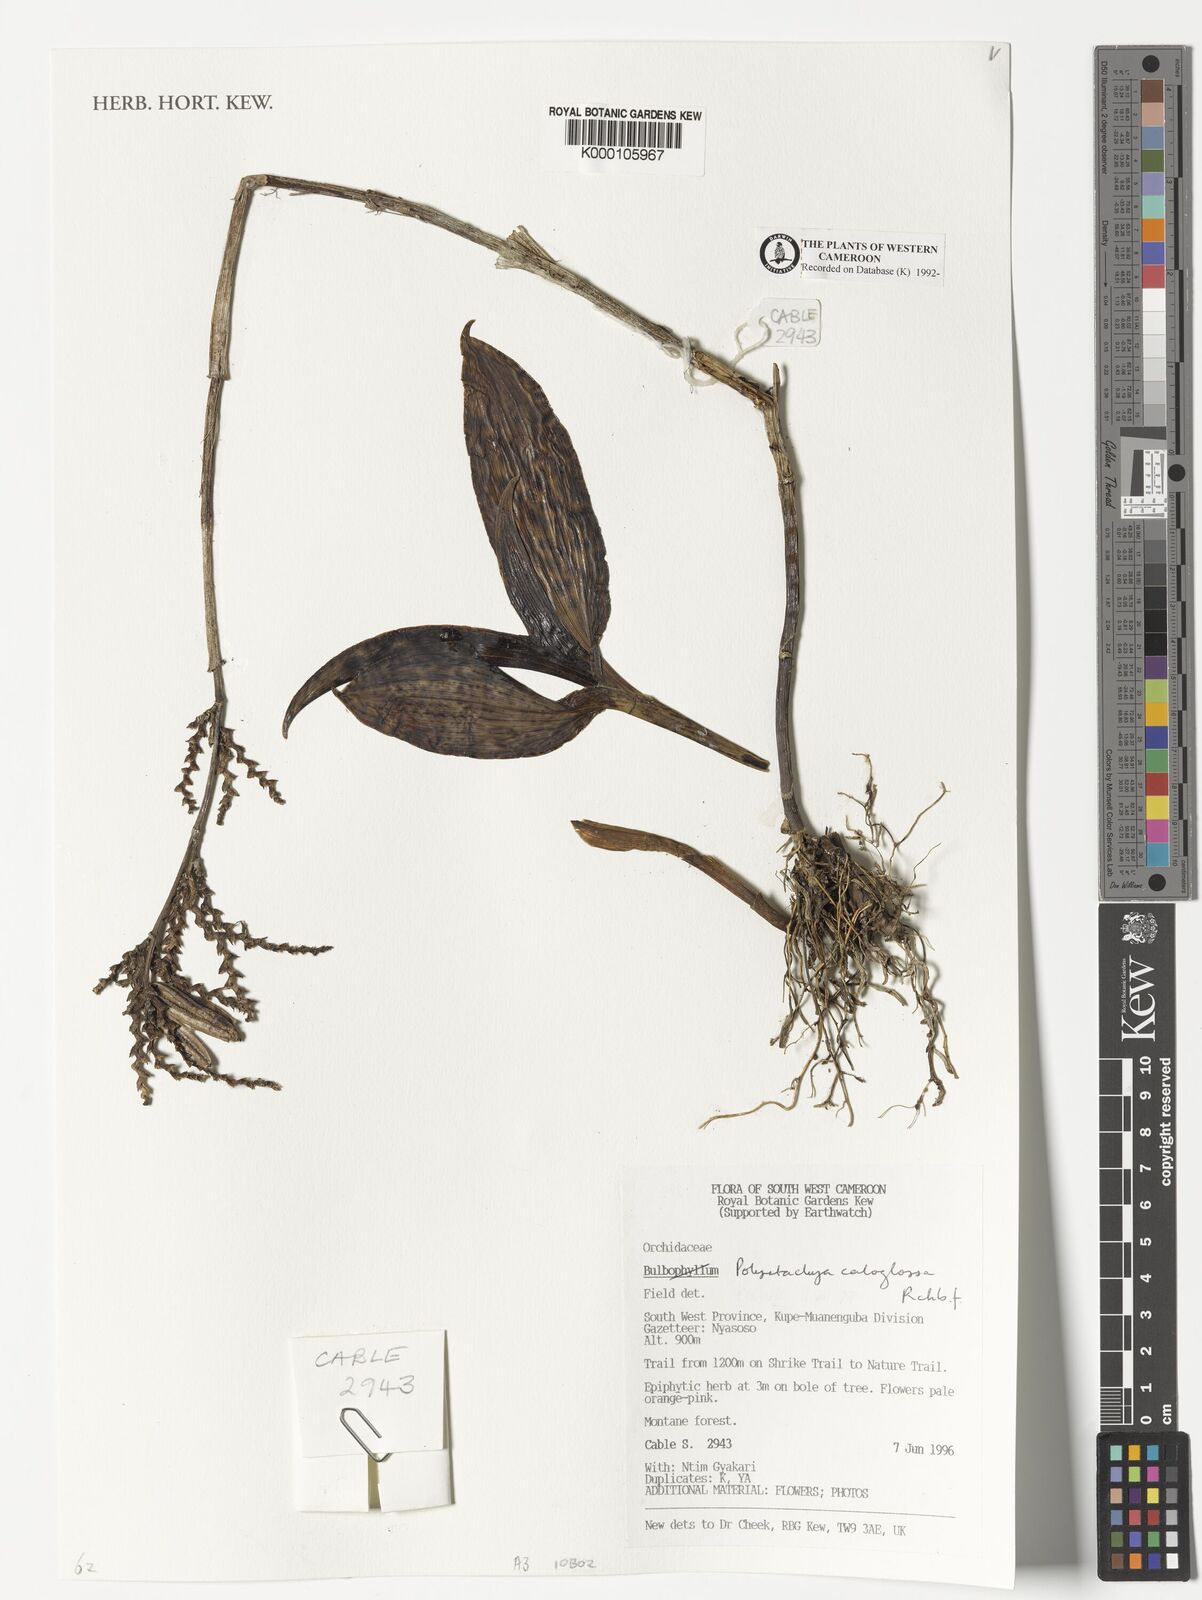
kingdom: Plantae
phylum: Tracheophyta
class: Liliopsida
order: Asparagales
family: Orchidaceae
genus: Polystachya
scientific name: Polystachya caloglossa
